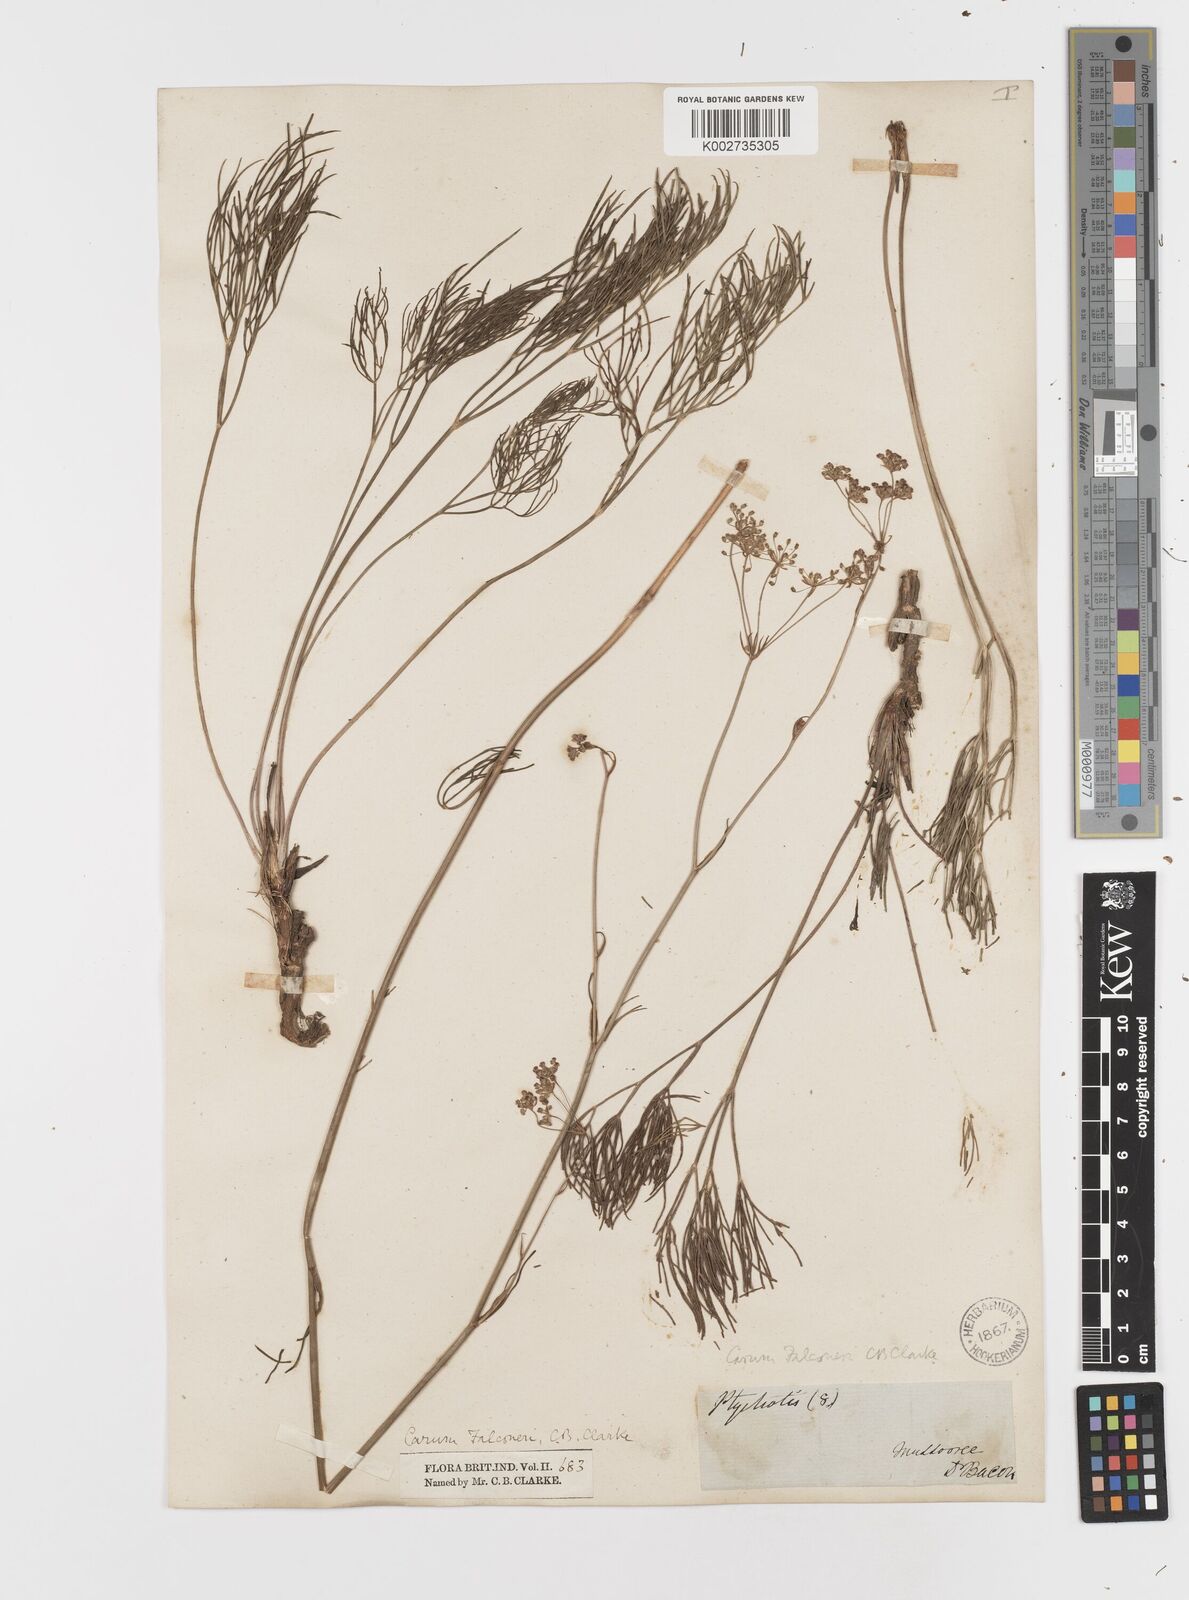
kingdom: Plantae
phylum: Tracheophyta
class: Magnoliopsida
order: Apiales
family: Apiaceae
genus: Trachyspermum
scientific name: Trachyspermum falconeri
